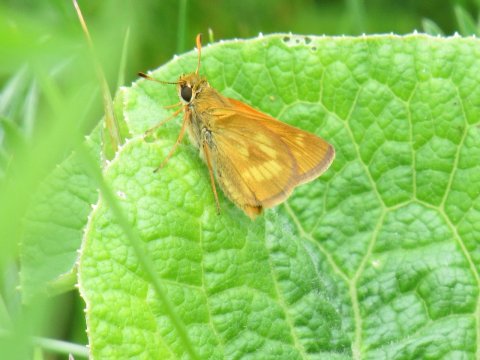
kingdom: Animalia
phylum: Arthropoda
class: Insecta
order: Lepidoptera
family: Hesperiidae
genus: Polites
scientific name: Polites
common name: Long Dash Skipper
